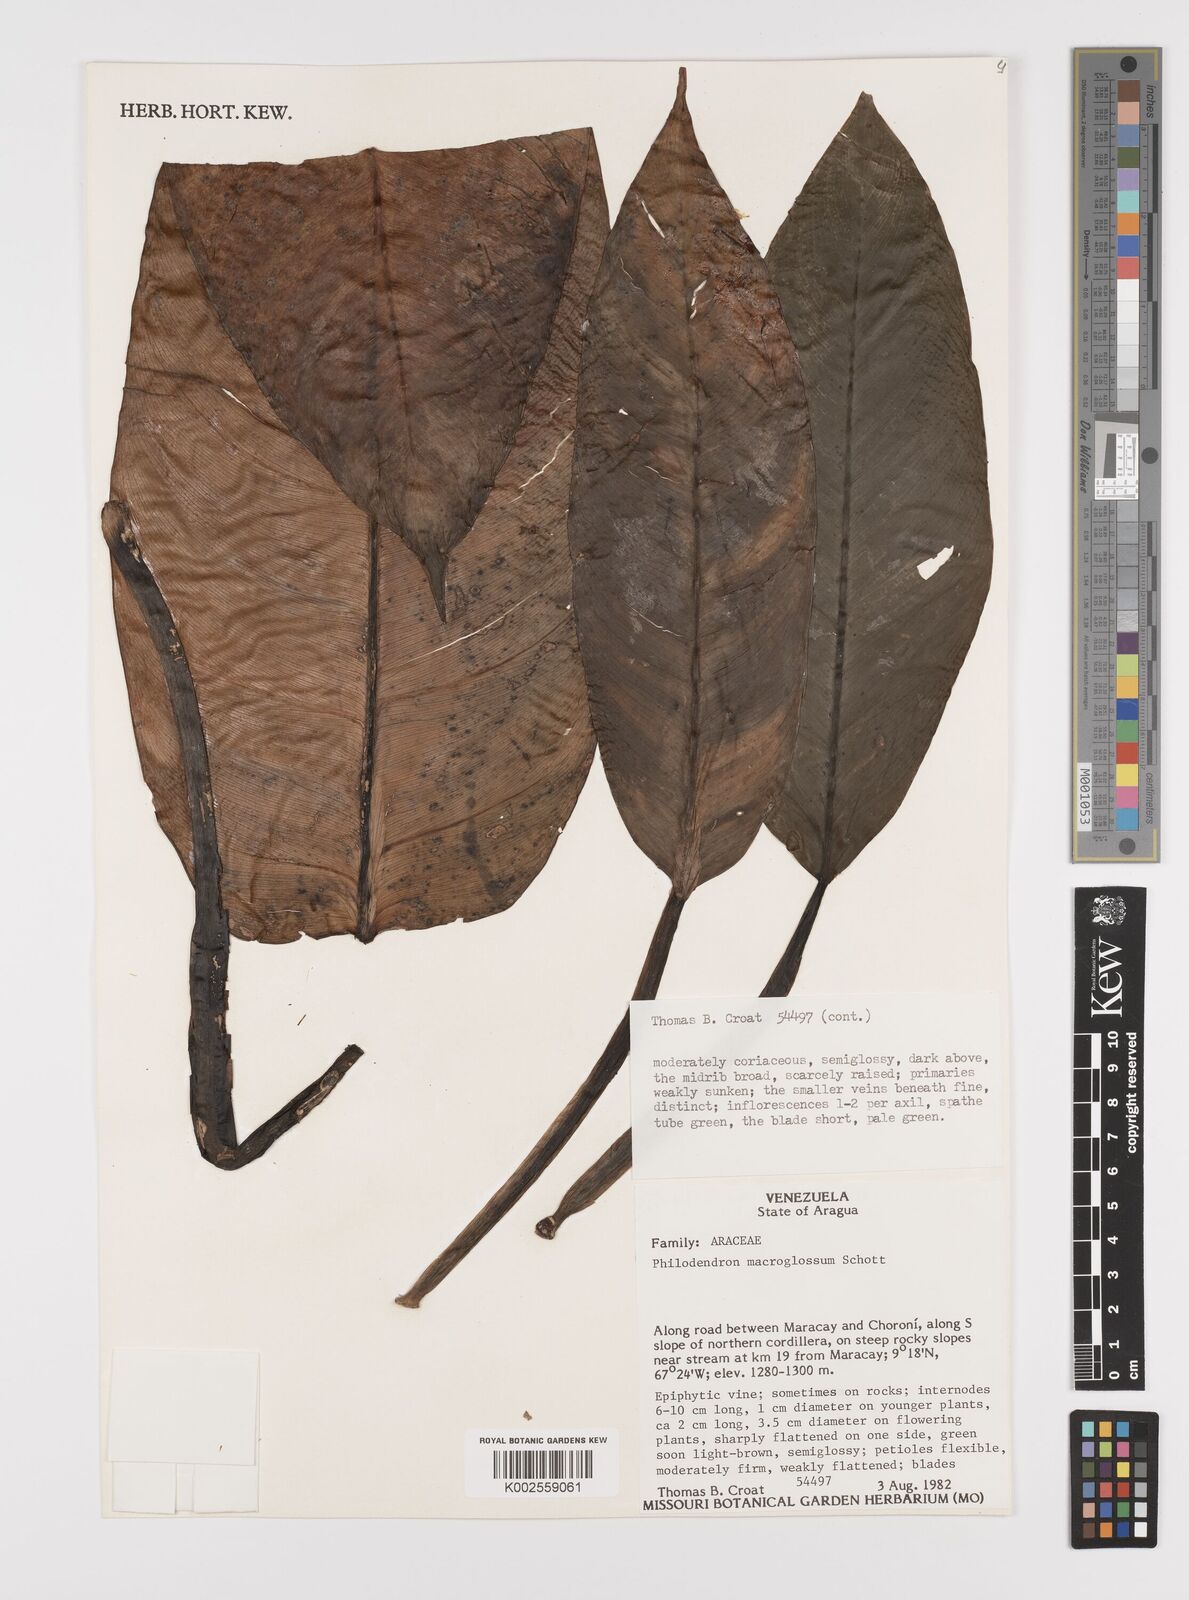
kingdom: Plantae
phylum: Tracheophyta
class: Liliopsida
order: Alismatales
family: Araceae
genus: Philodendron
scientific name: Philodendron macroglossum
